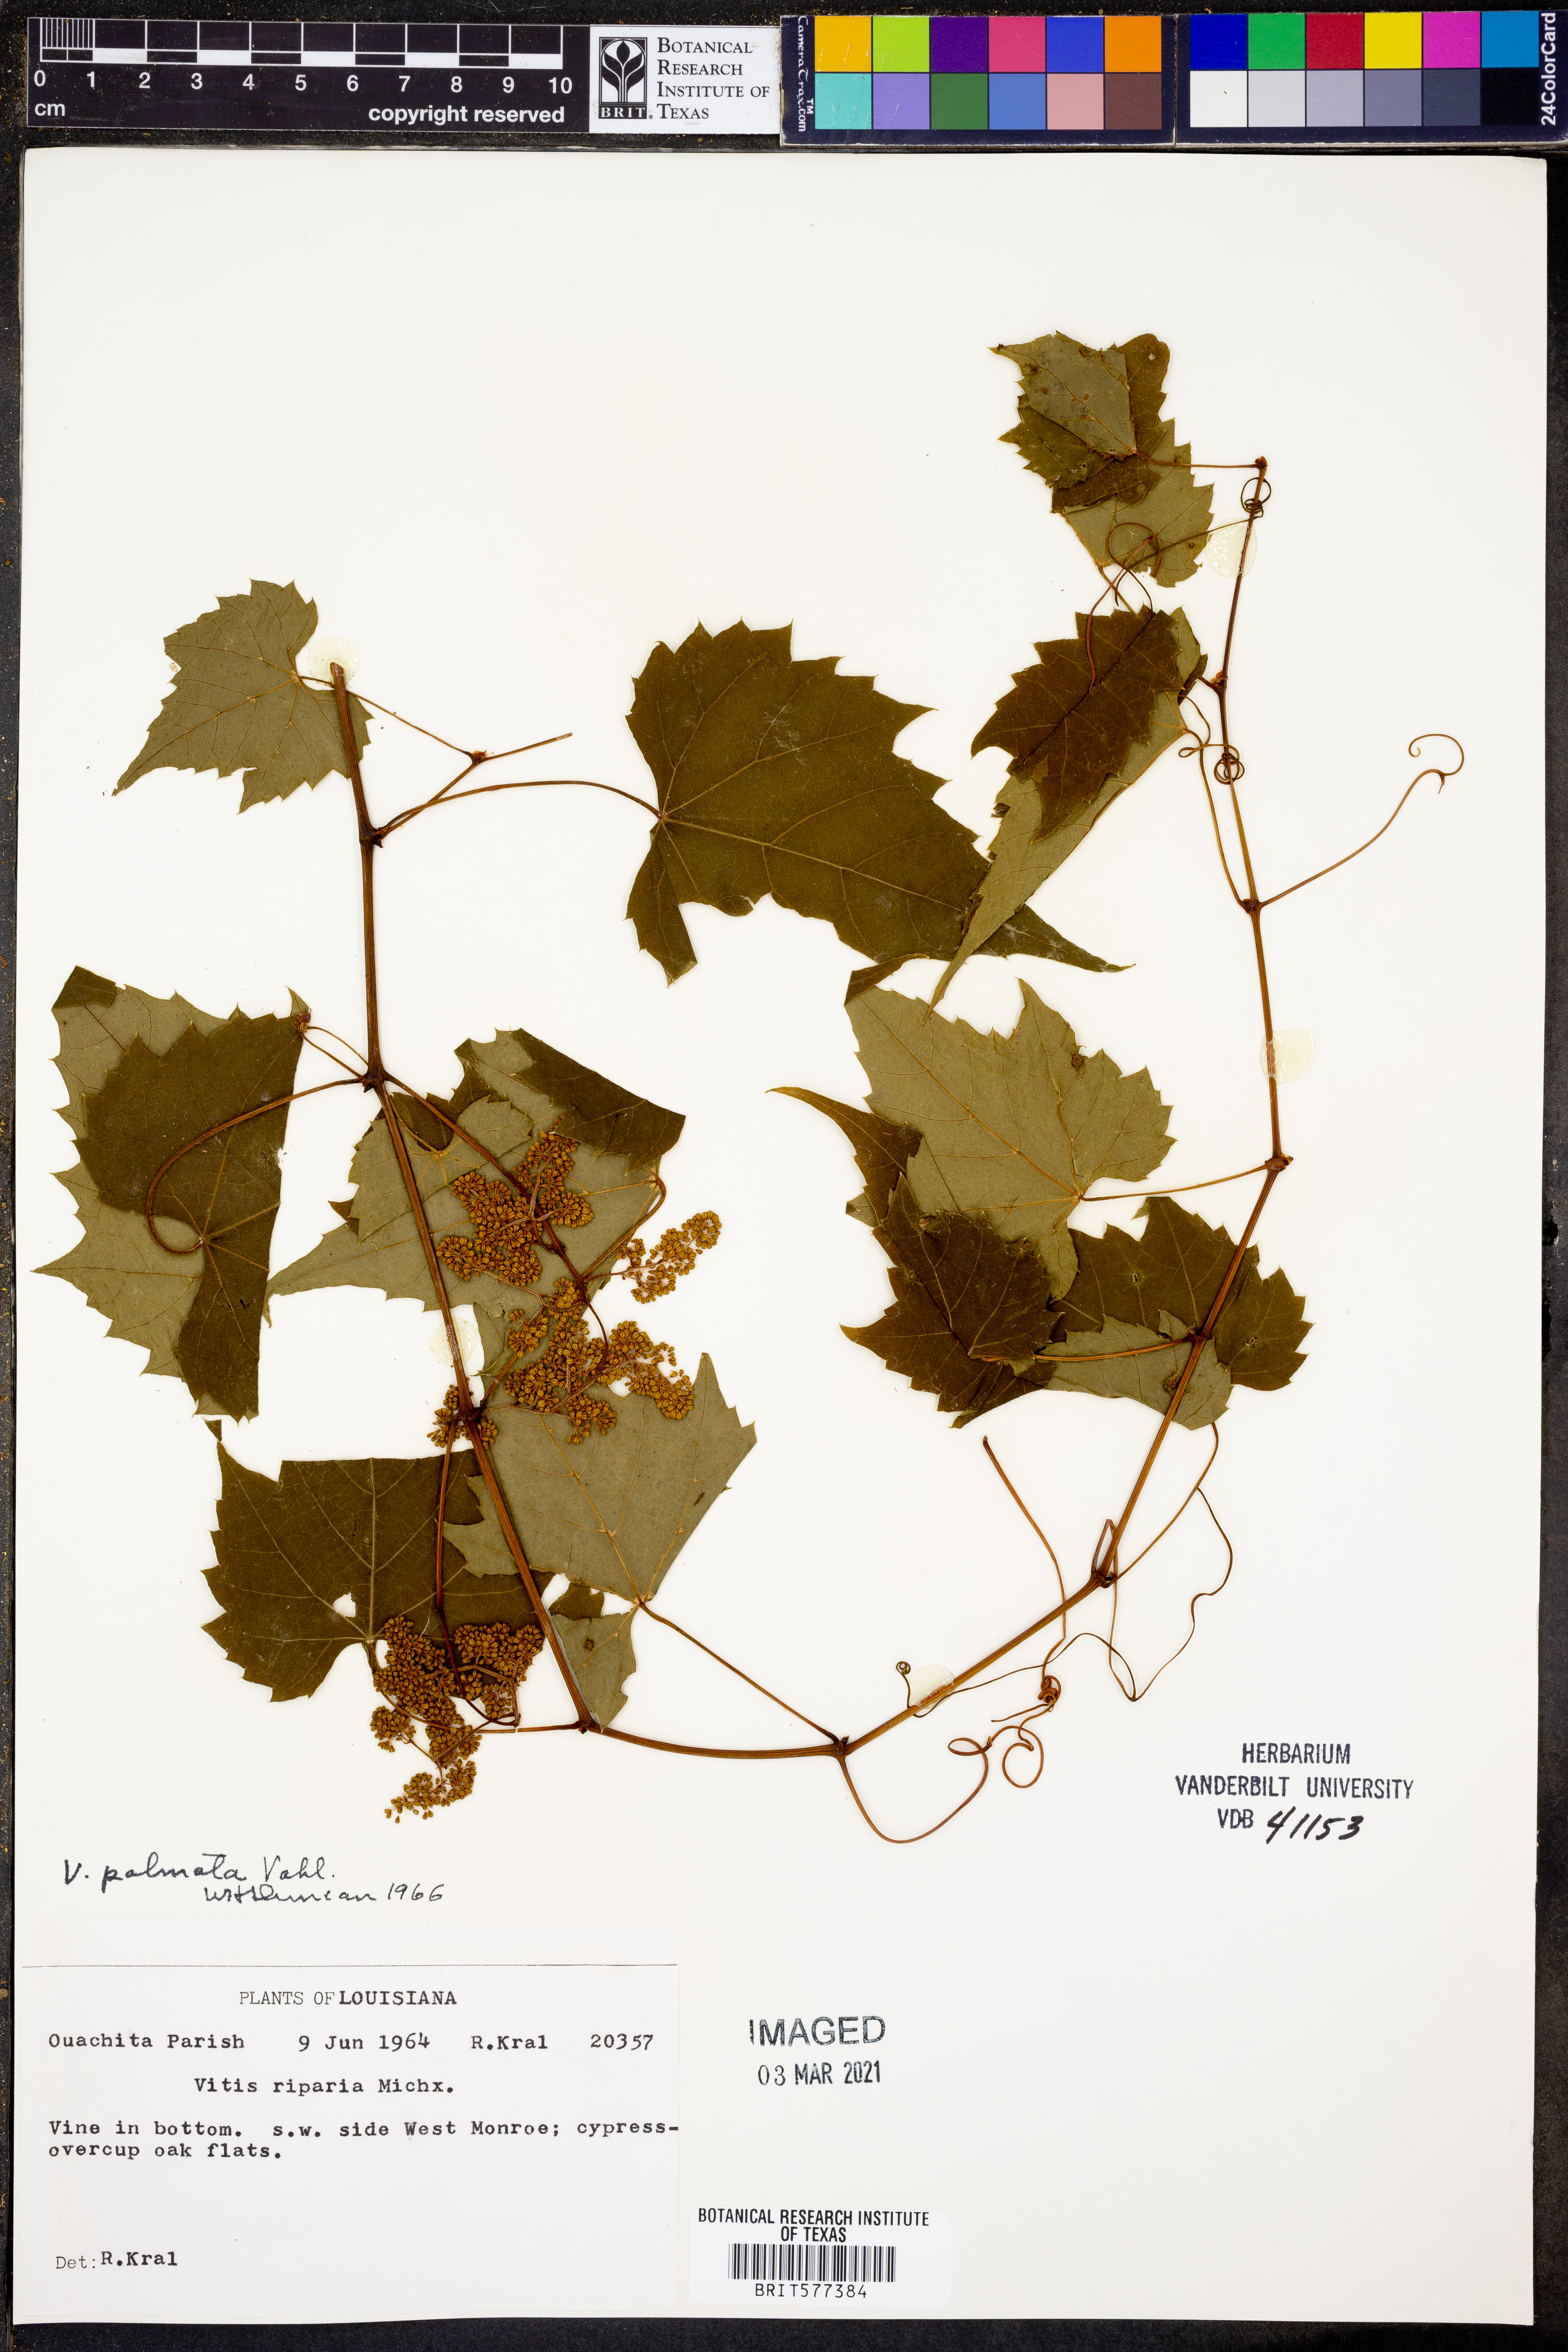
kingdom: Plantae
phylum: Tracheophyta
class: Magnoliopsida
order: Vitales
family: Vitaceae
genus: Vitis
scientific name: Vitis palmata
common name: Catbird grape
